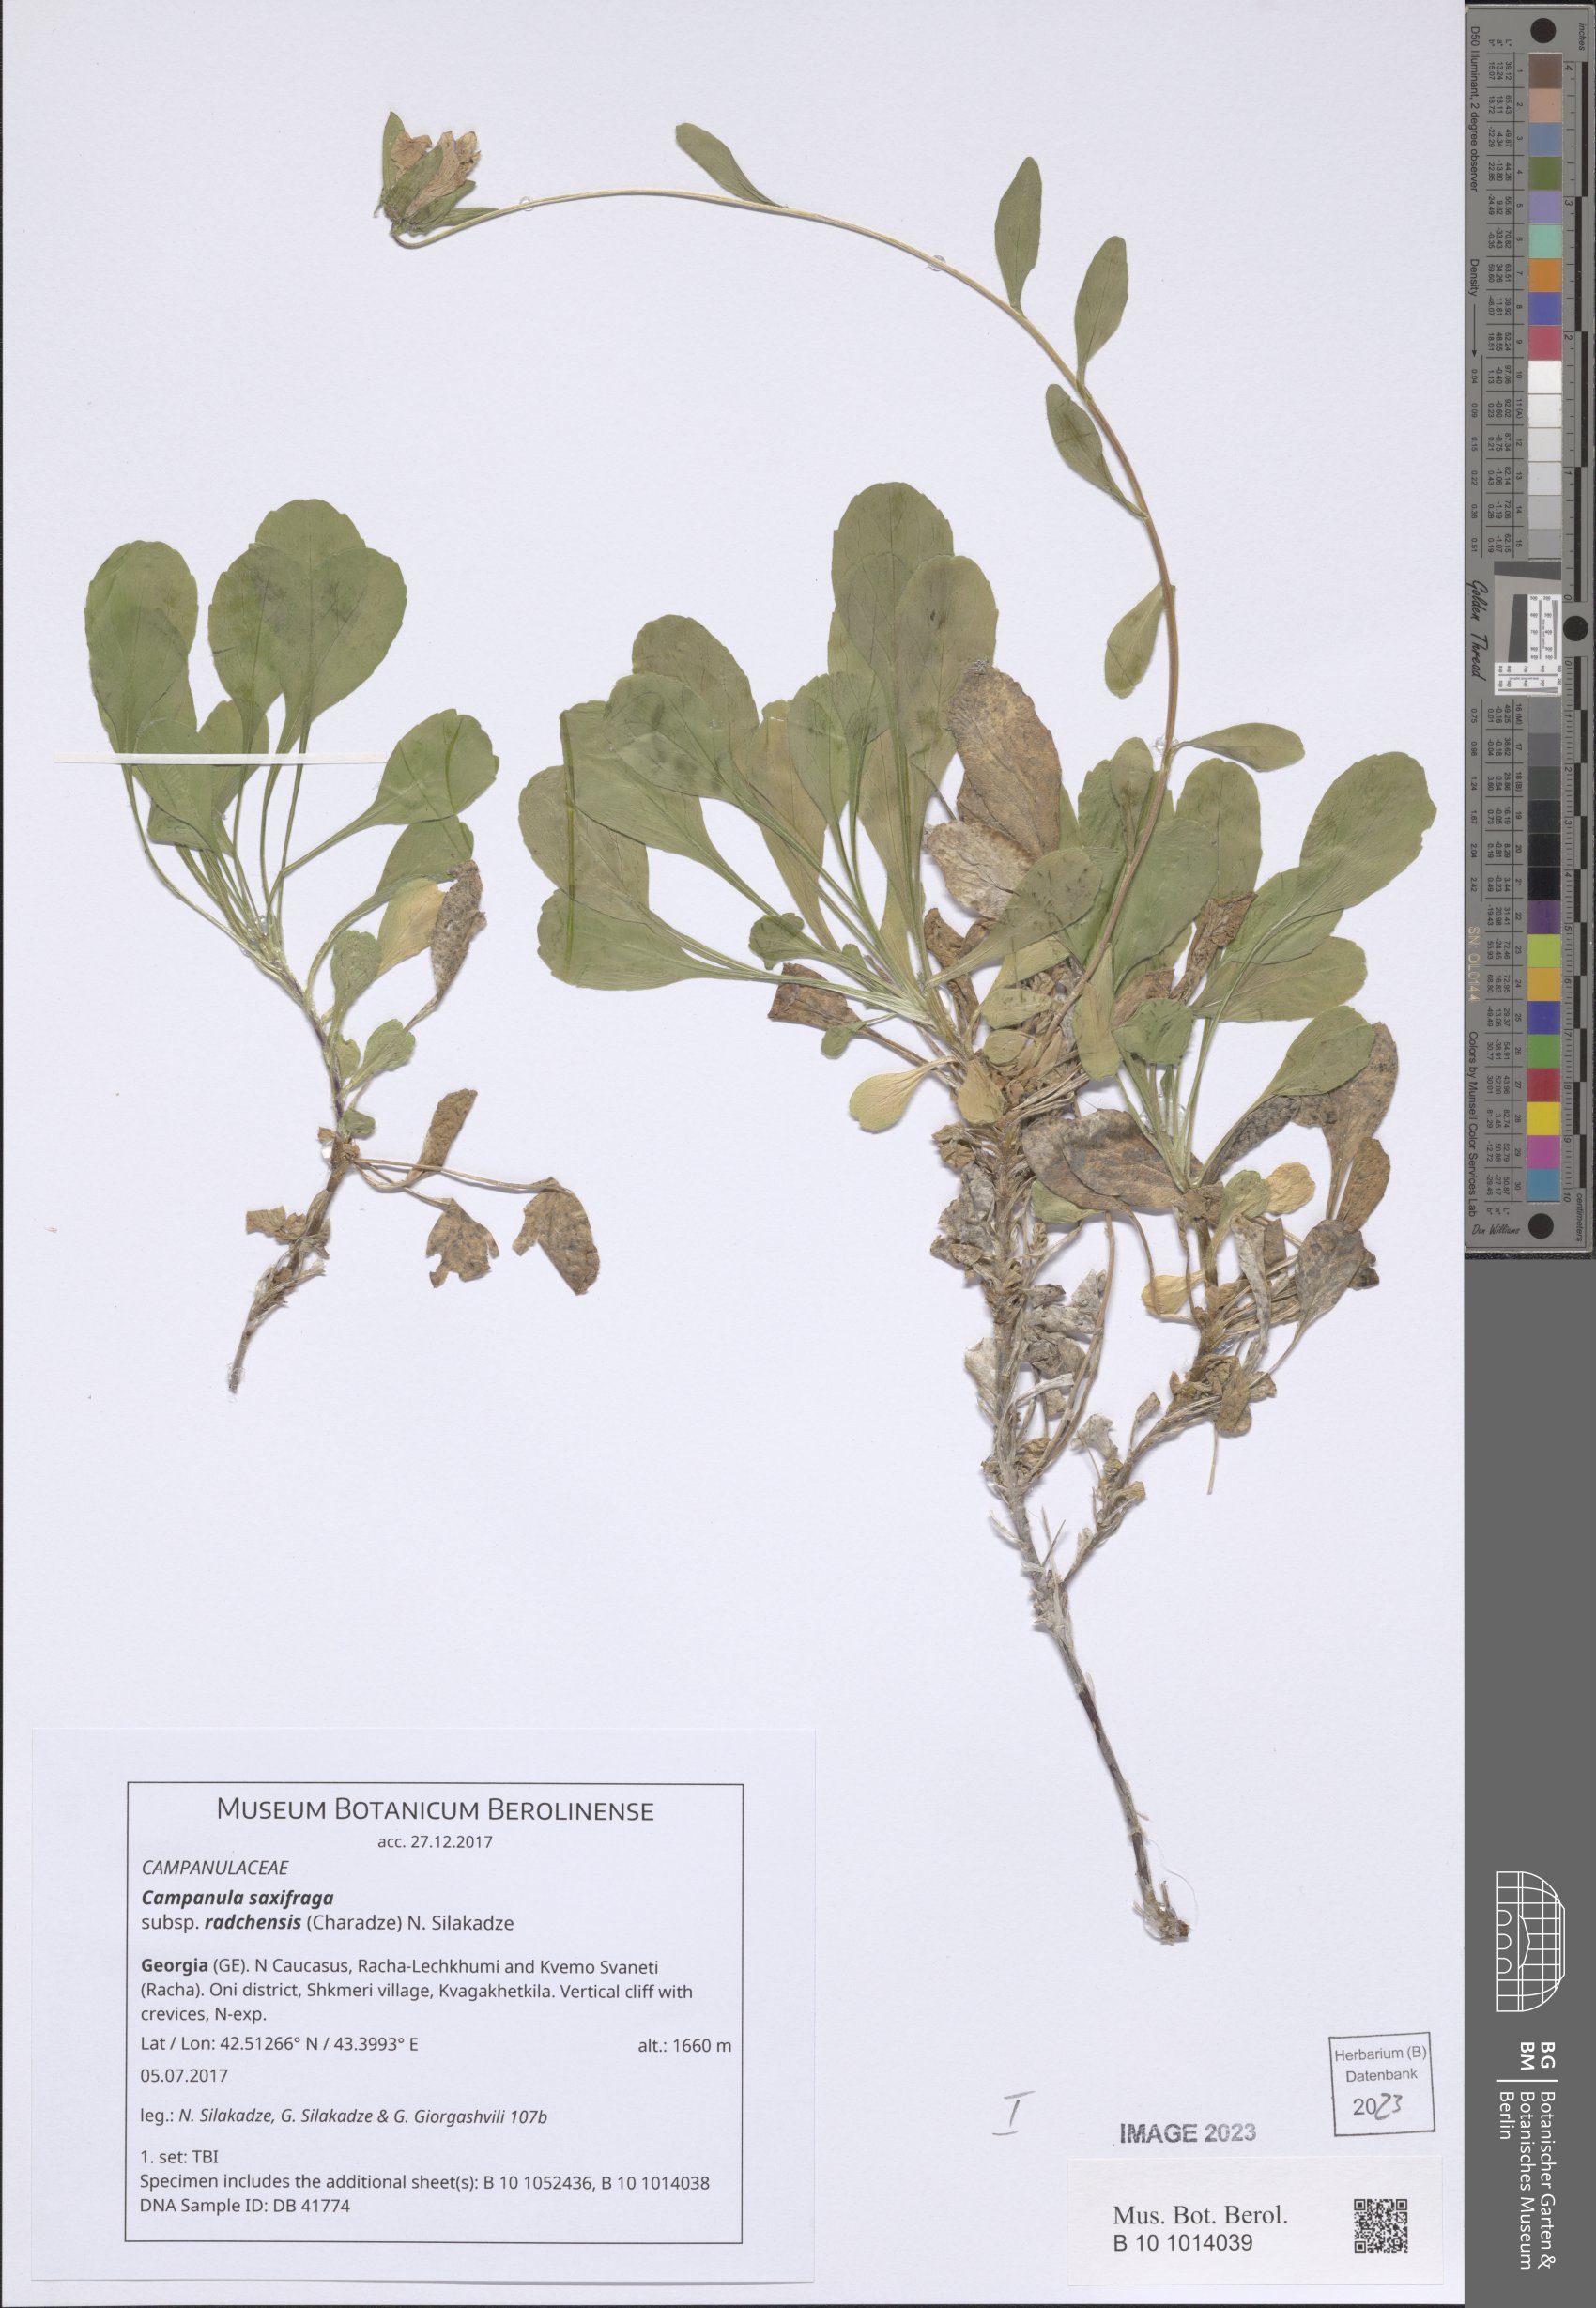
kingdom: Plantae
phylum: Tracheophyta
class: Magnoliopsida
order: Asterales
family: Campanulaceae
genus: Campanula
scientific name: Campanula saxifraga
